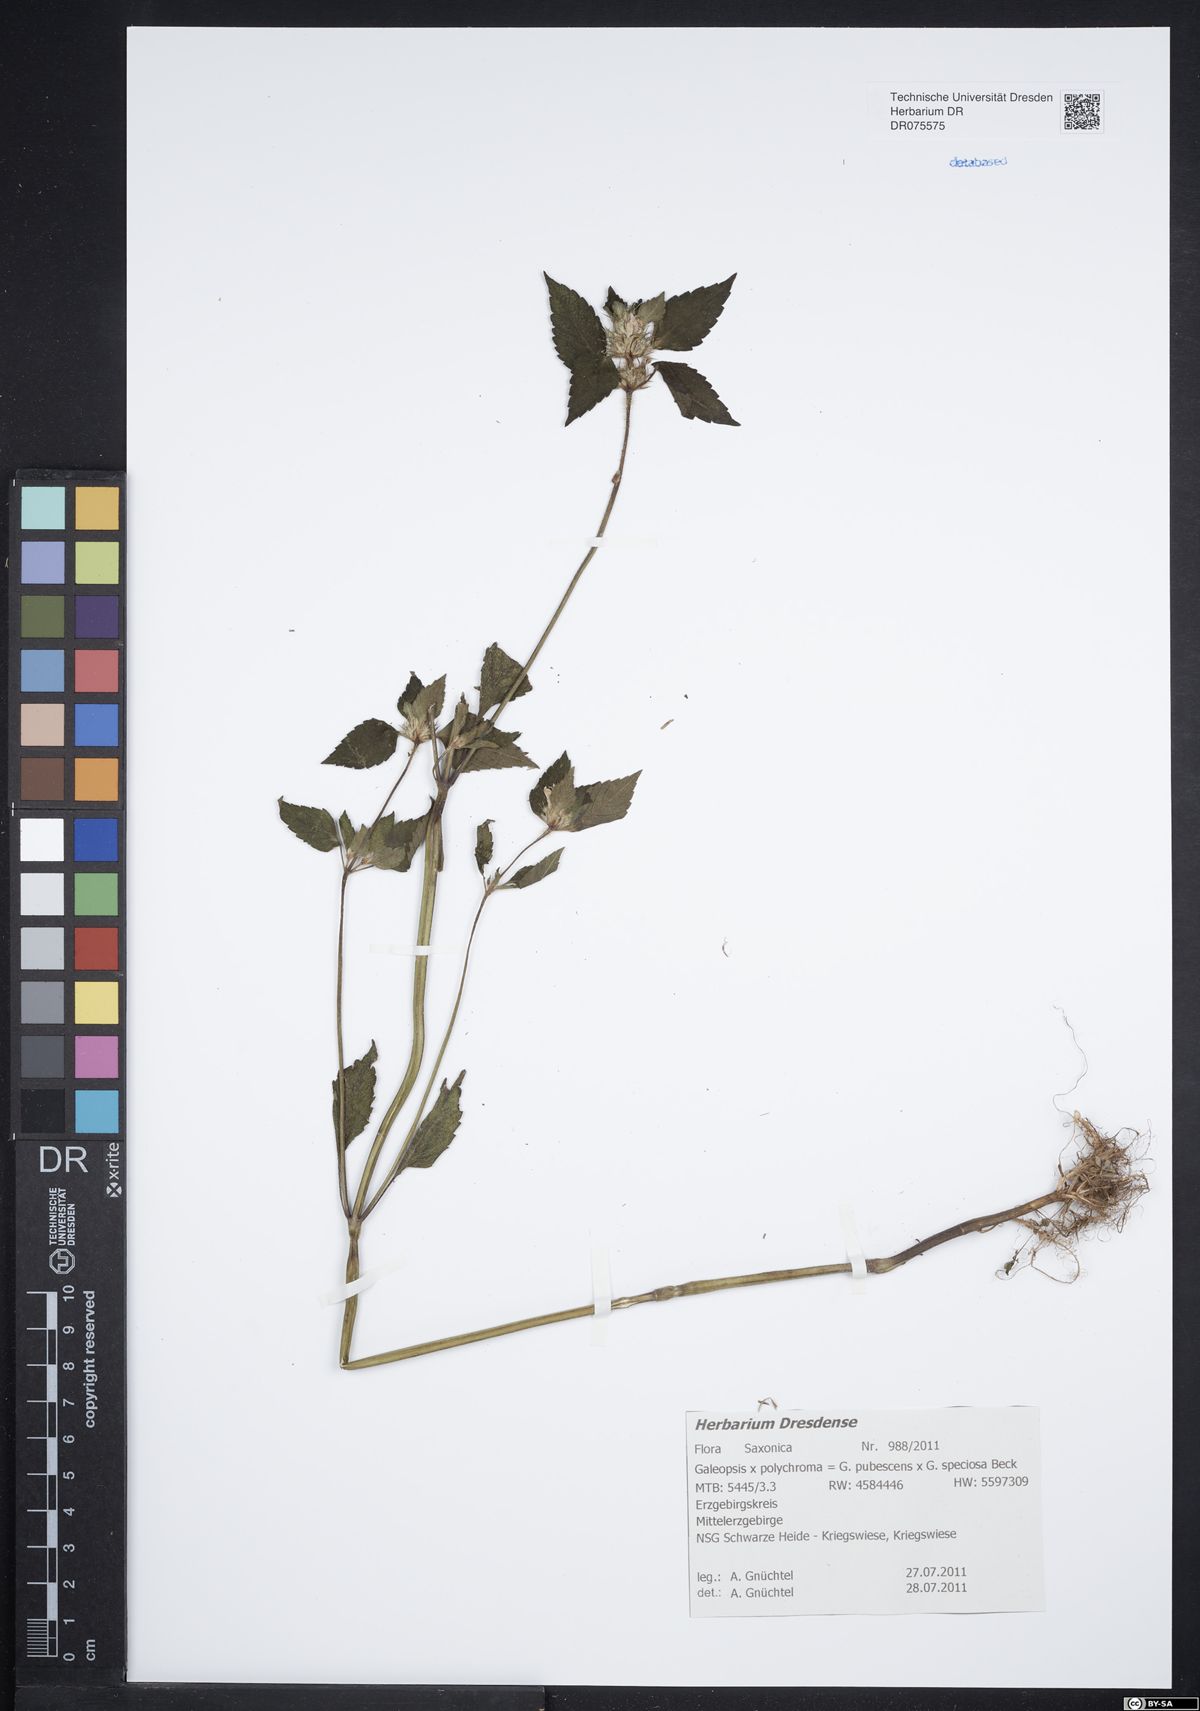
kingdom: Plantae
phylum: Tracheophyta
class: Magnoliopsida
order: Lamiales
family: Lamiaceae
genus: Galeopsis
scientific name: Galeopsis polychroma
